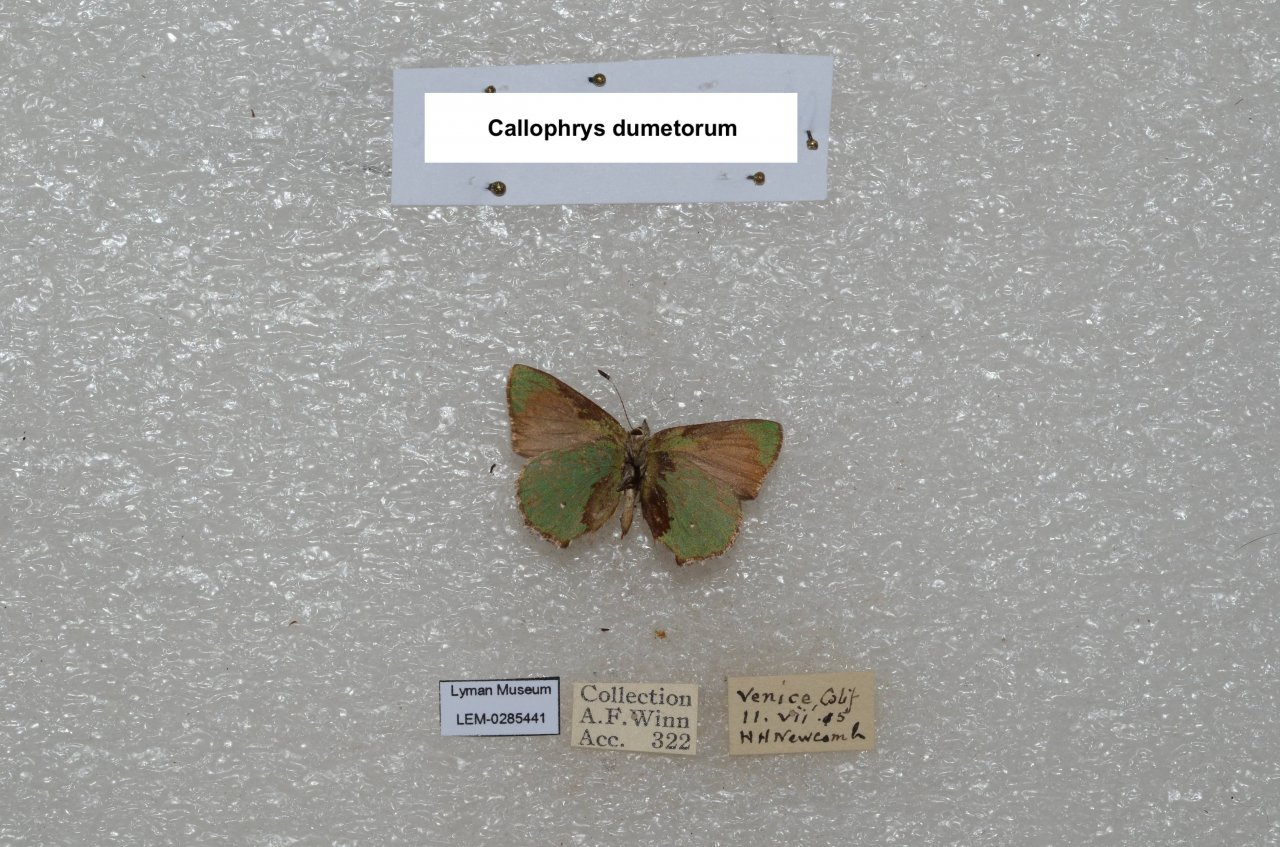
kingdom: Animalia
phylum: Arthropoda
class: Insecta
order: Lepidoptera
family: Lycaenidae
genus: Callophrys
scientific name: Callophrys dumetorum
